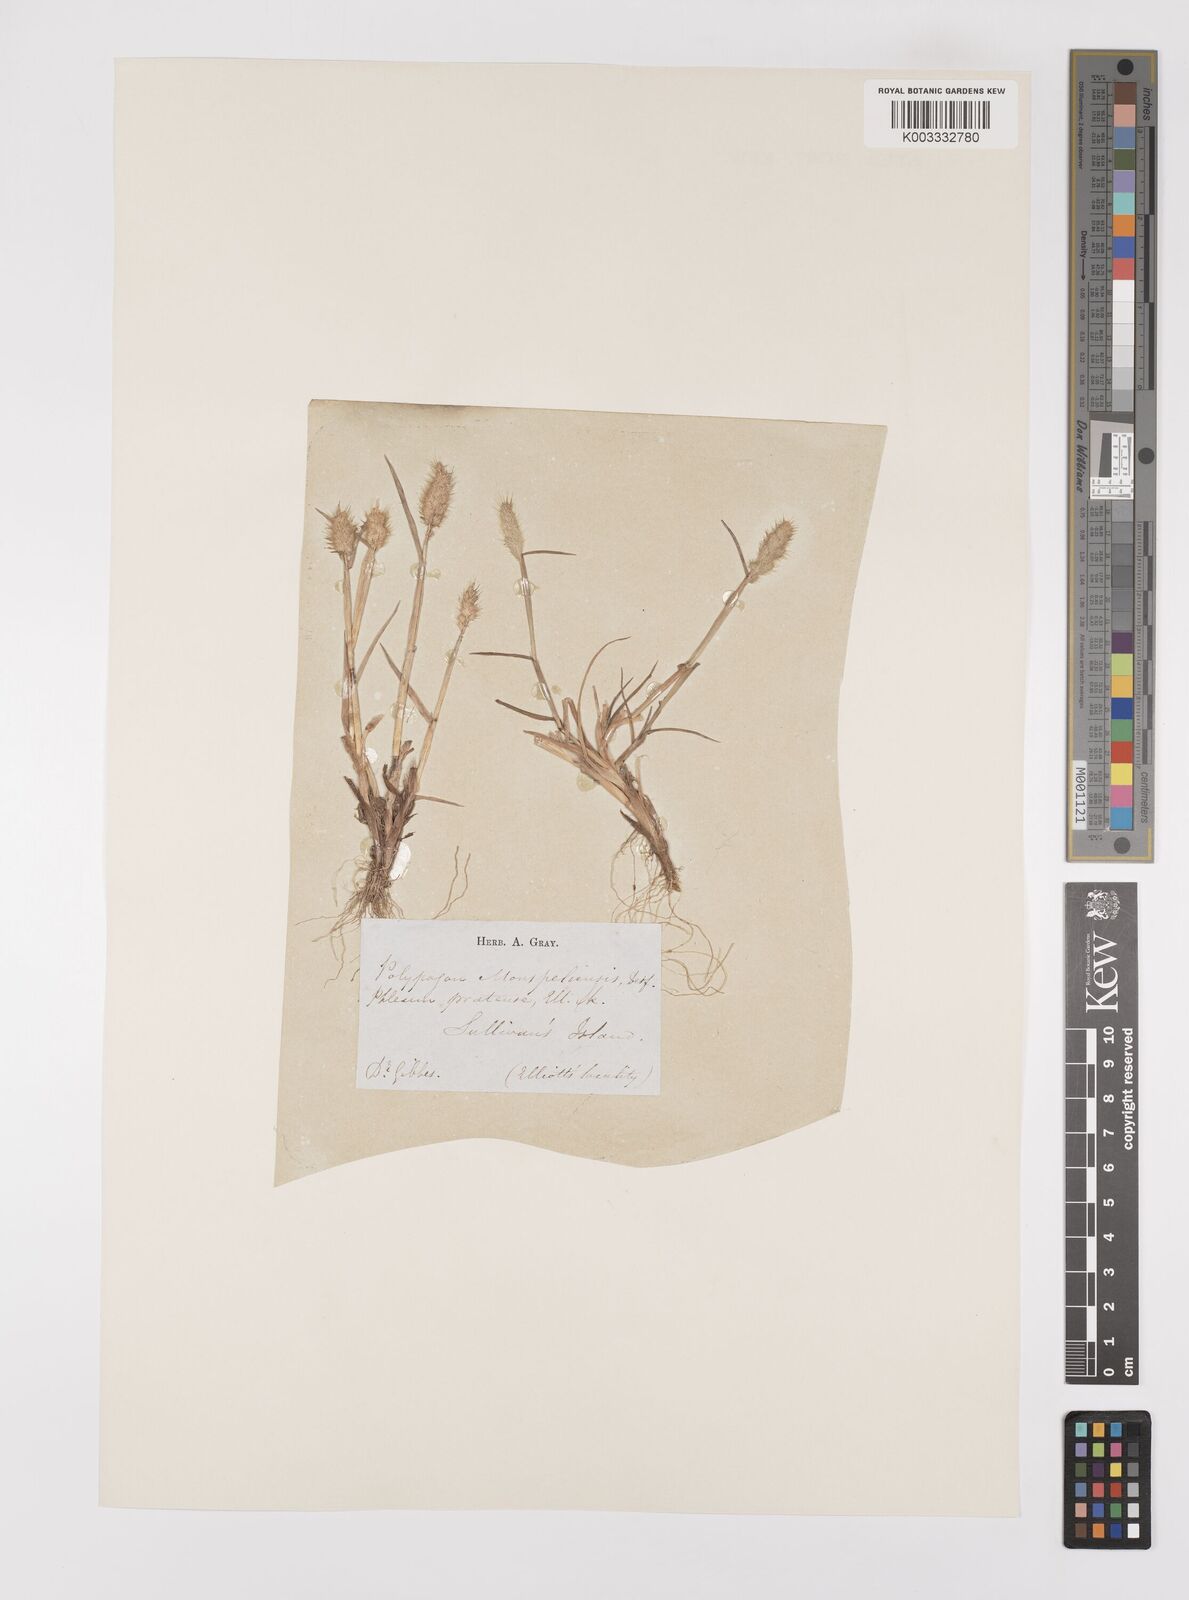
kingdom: Plantae
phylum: Tracheophyta
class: Liliopsida
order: Poales
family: Poaceae
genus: Polypogon
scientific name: Polypogon monspeliensis
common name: Annual rabbitsfoot grass
